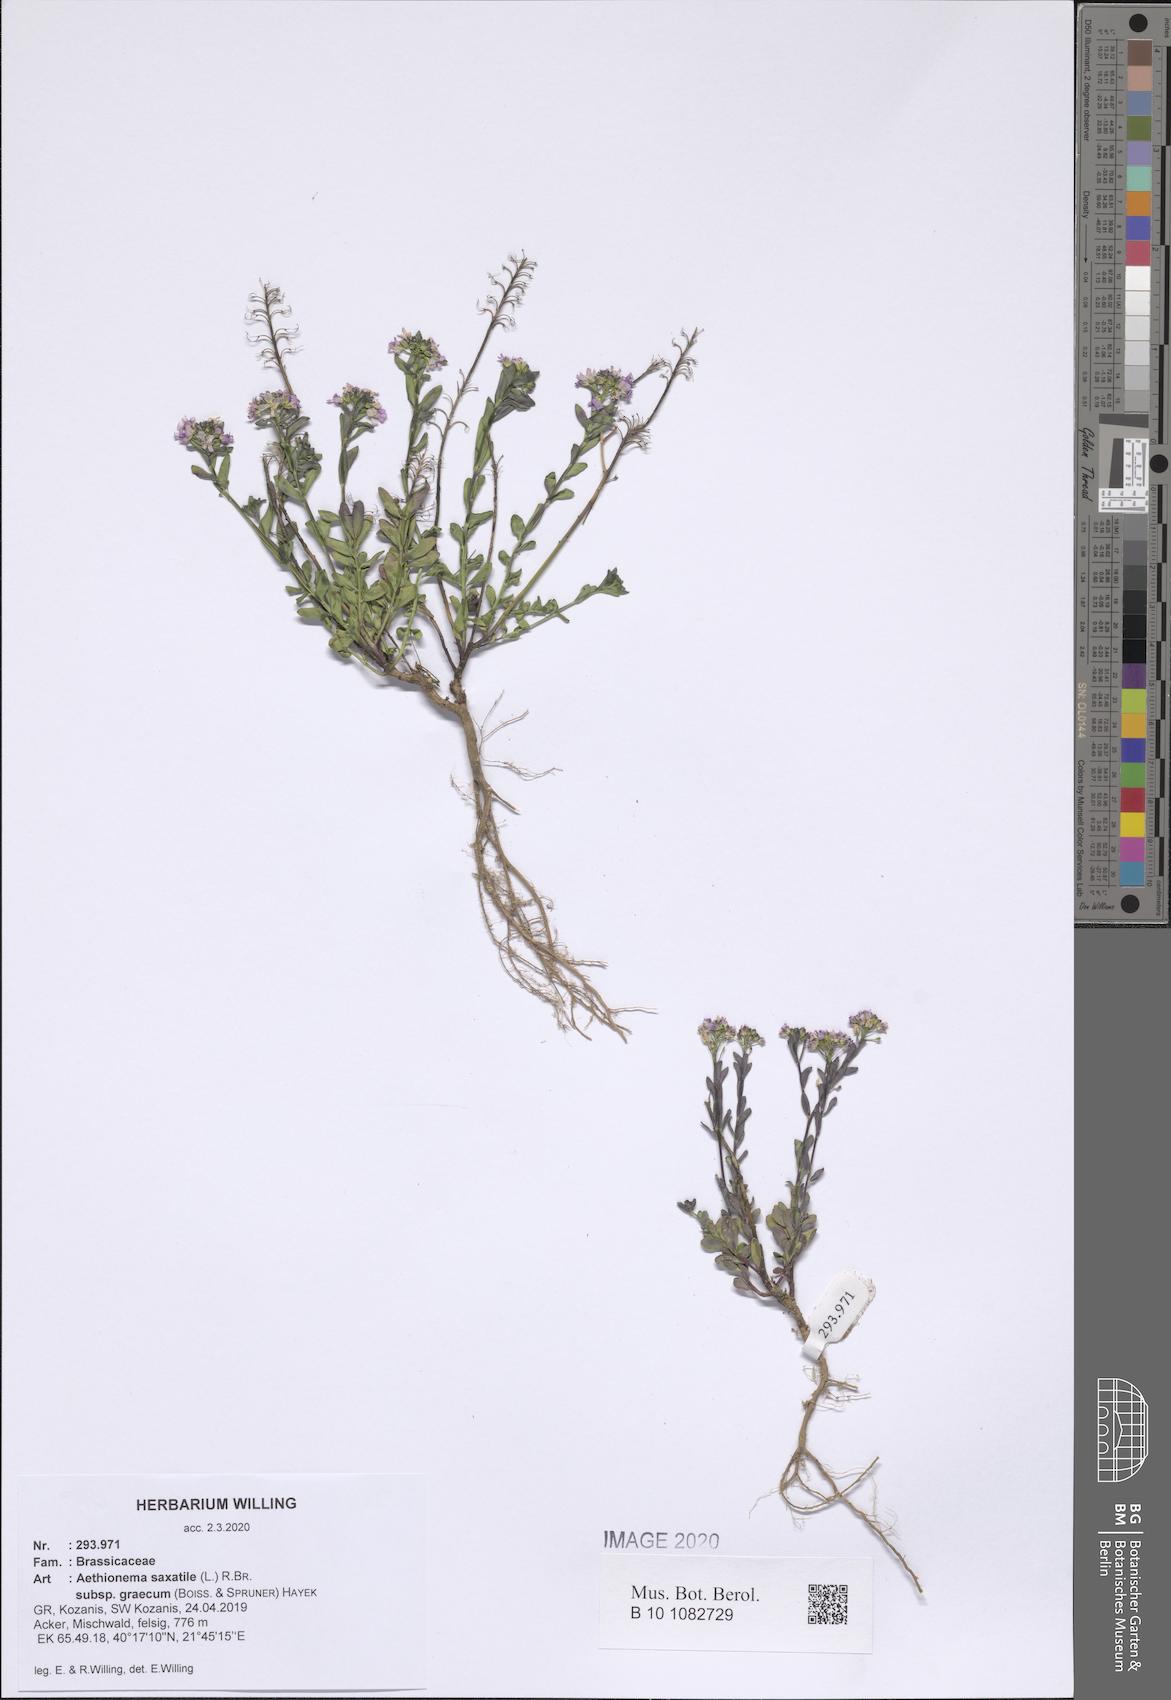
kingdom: Plantae
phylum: Tracheophyta
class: Magnoliopsida
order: Brassicales
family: Brassicaceae
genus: Aethionema
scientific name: Aethionema saxatile
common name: Burnt candytuft
